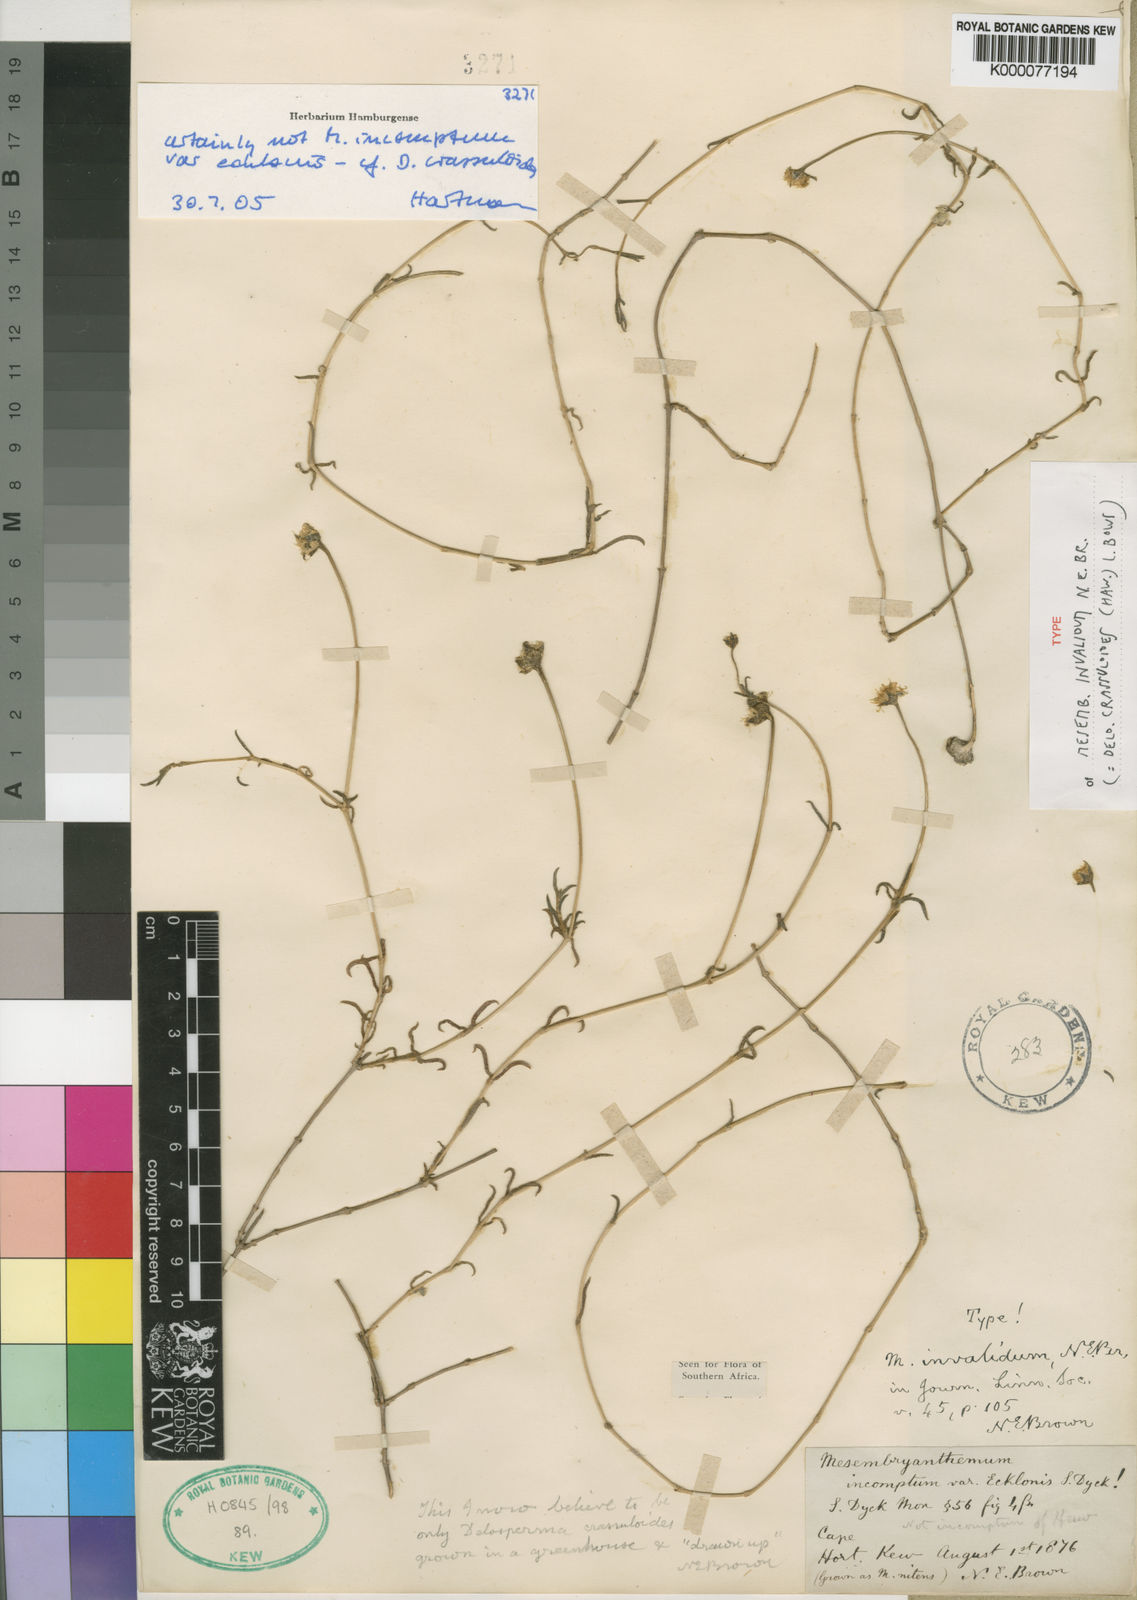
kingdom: Plantae
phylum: Tracheophyta
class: Magnoliopsida
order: Caryophyllales
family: Aizoaceae
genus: Delosperma
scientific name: Delosperma crassuloides
